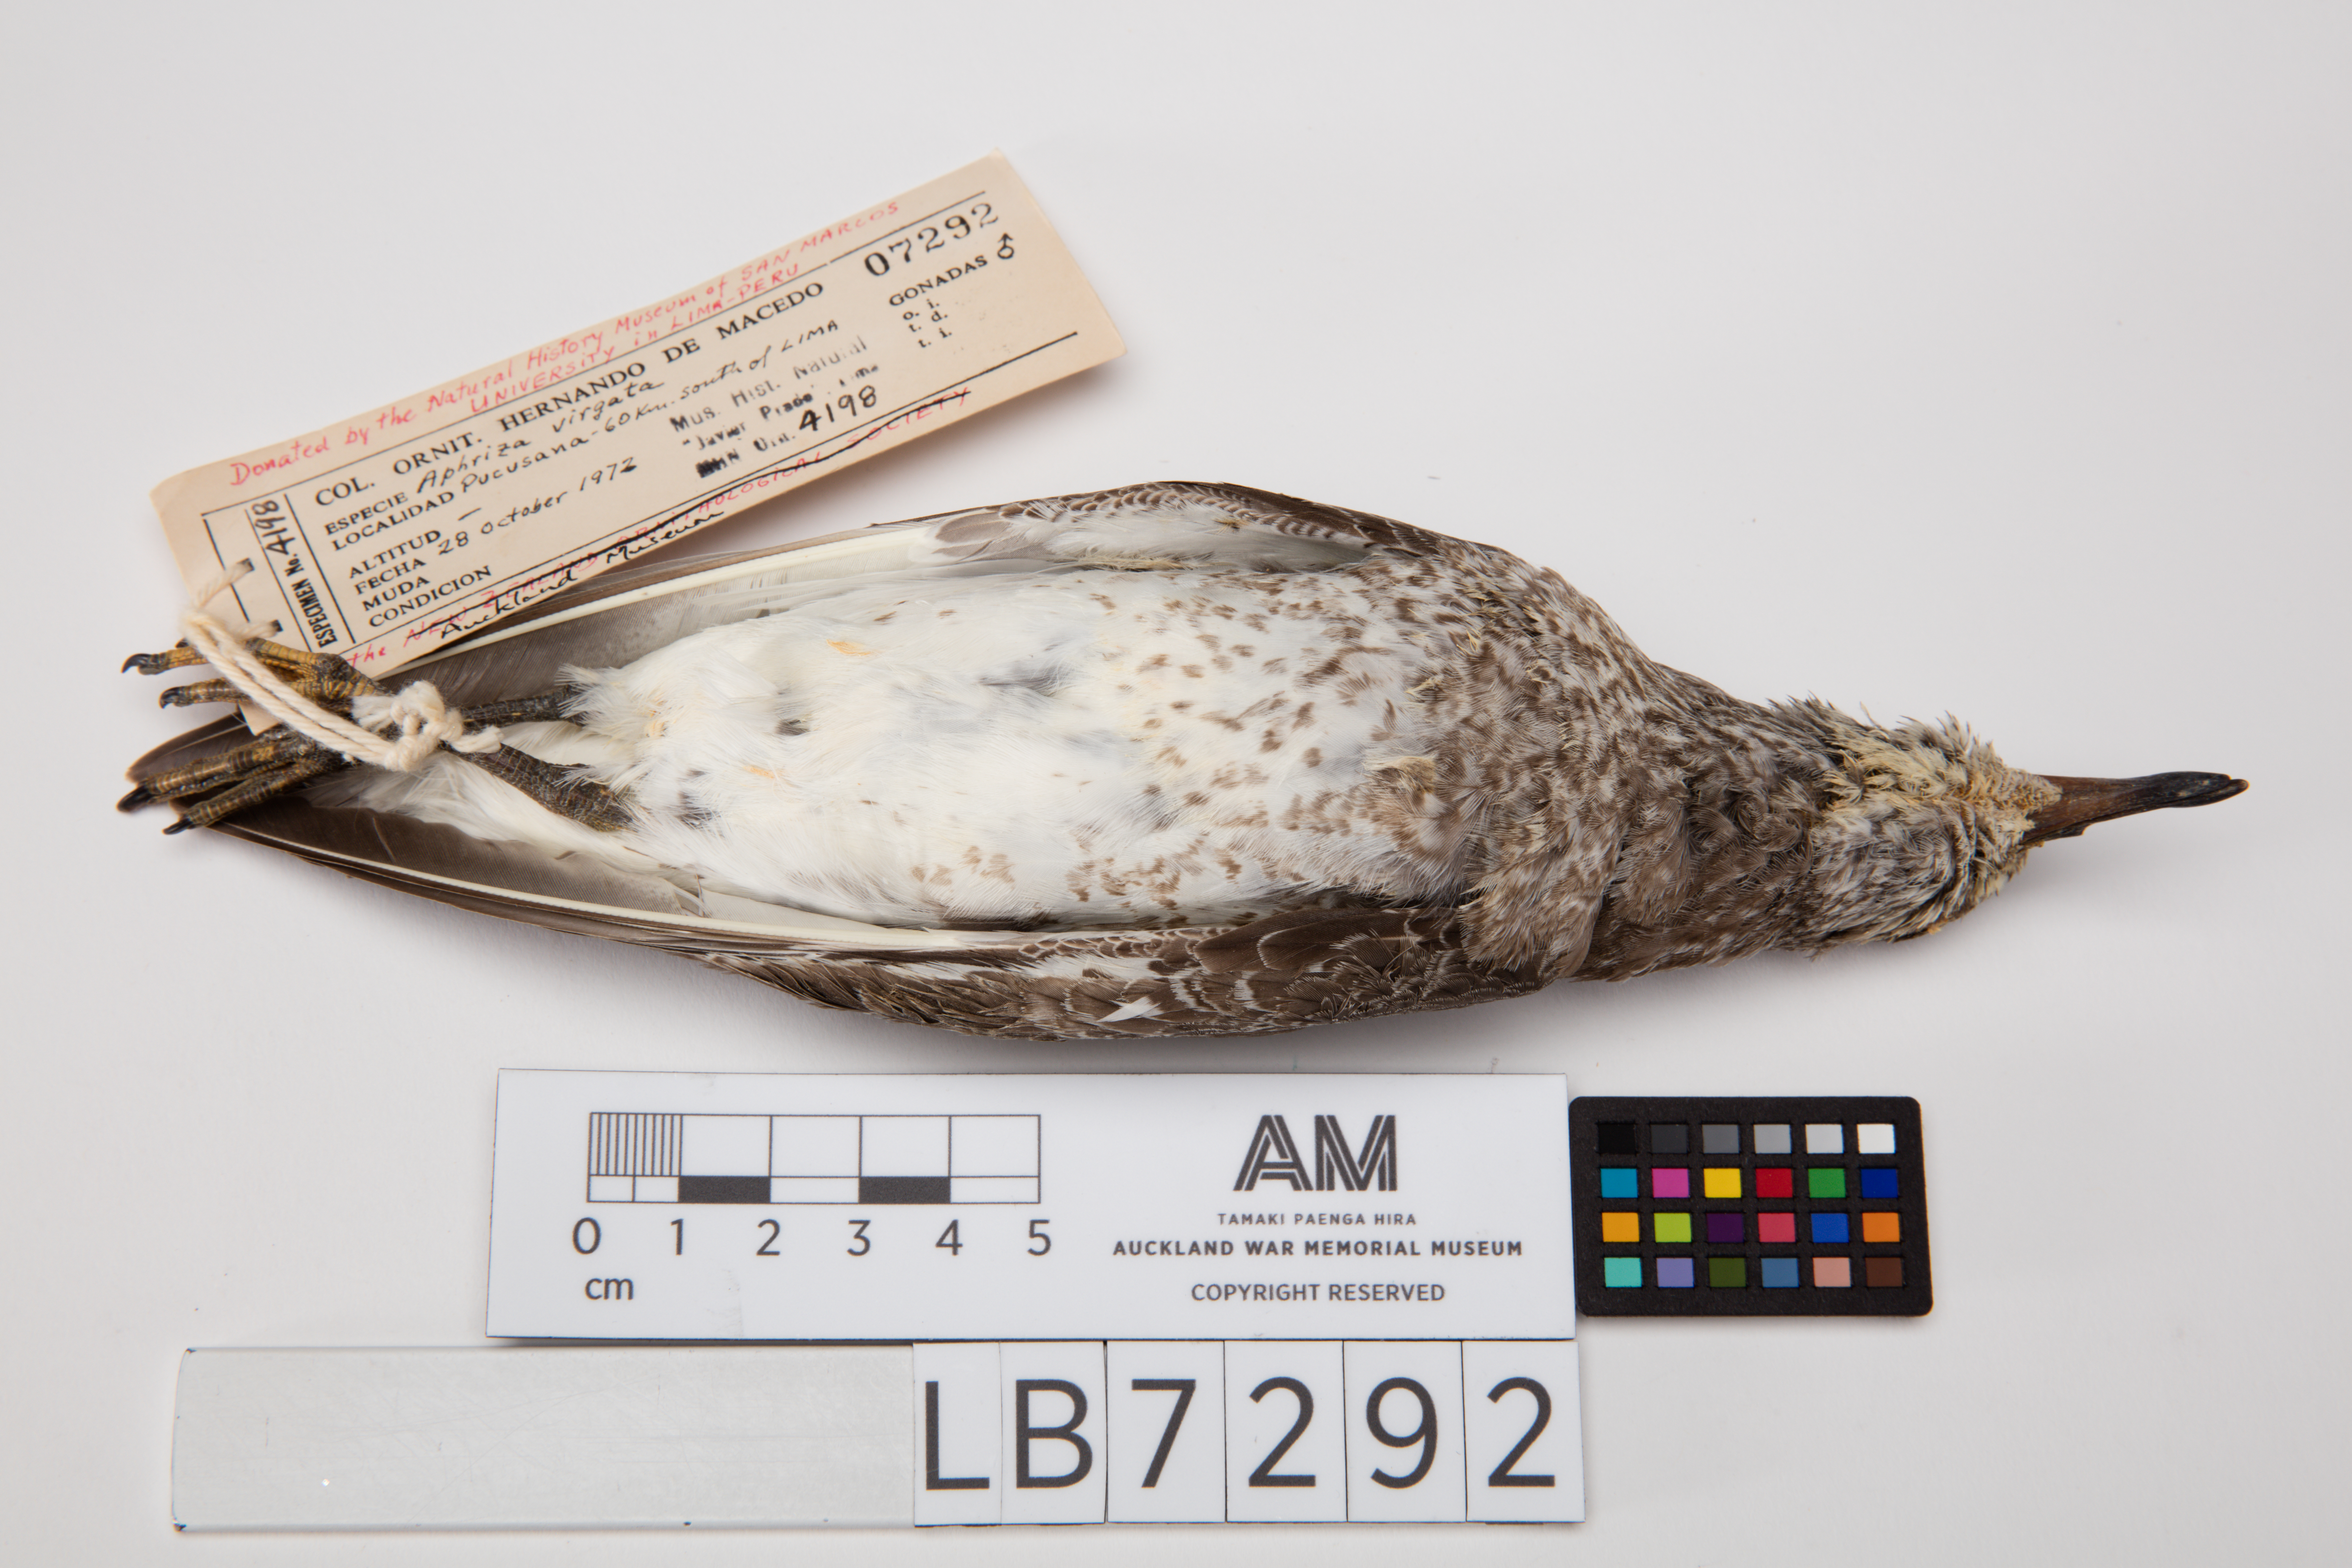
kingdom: Animalia
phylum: Chordata
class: Aves
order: Charadriiformes
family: Scolopacidae
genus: Calidris
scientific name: Calidris virgata
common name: Surfbird
